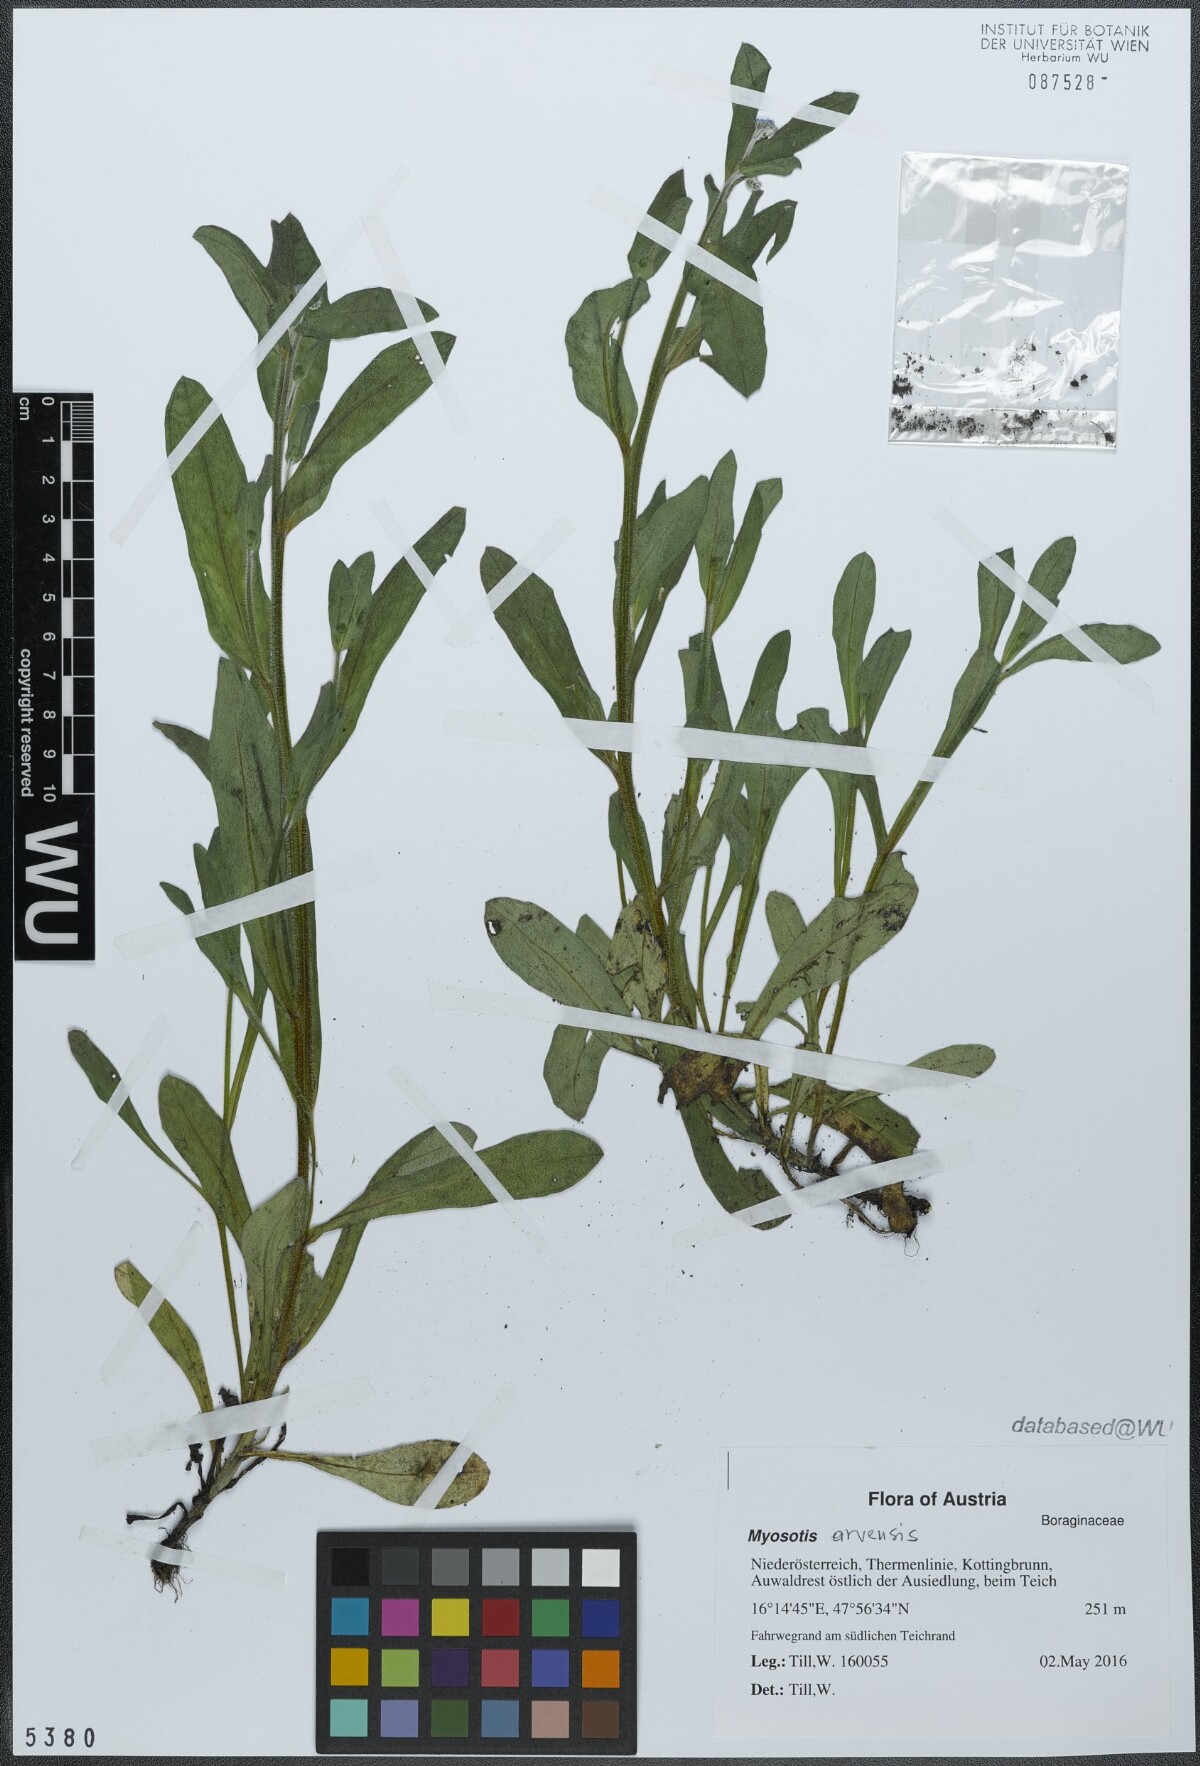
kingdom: Plantae
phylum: Tracheophyta
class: Magnoliopsida
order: Boraginales
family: Boraginaceae
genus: Myosotis
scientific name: Myosotis arvensis
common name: Field forget-me-not
